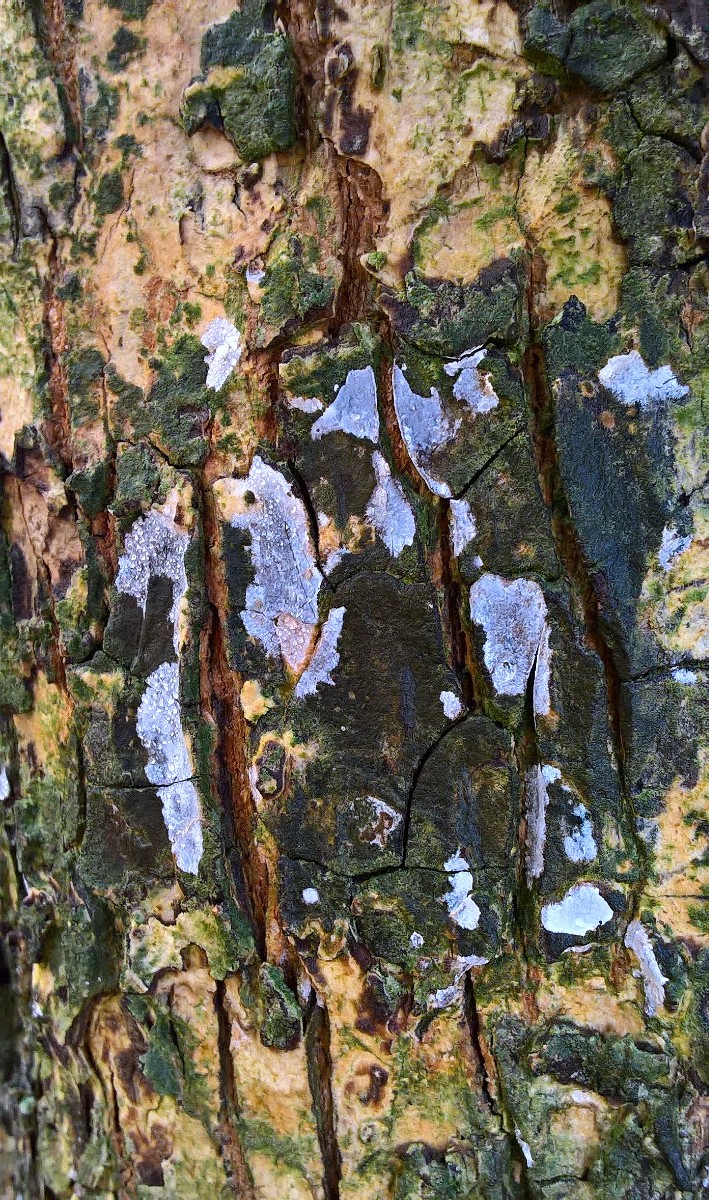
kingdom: Fungi
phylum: Basidiomycota
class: Agaricomycetes
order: Agaricales
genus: Dendrothele
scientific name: Dendrothele acerina
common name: navr-kalkplet
